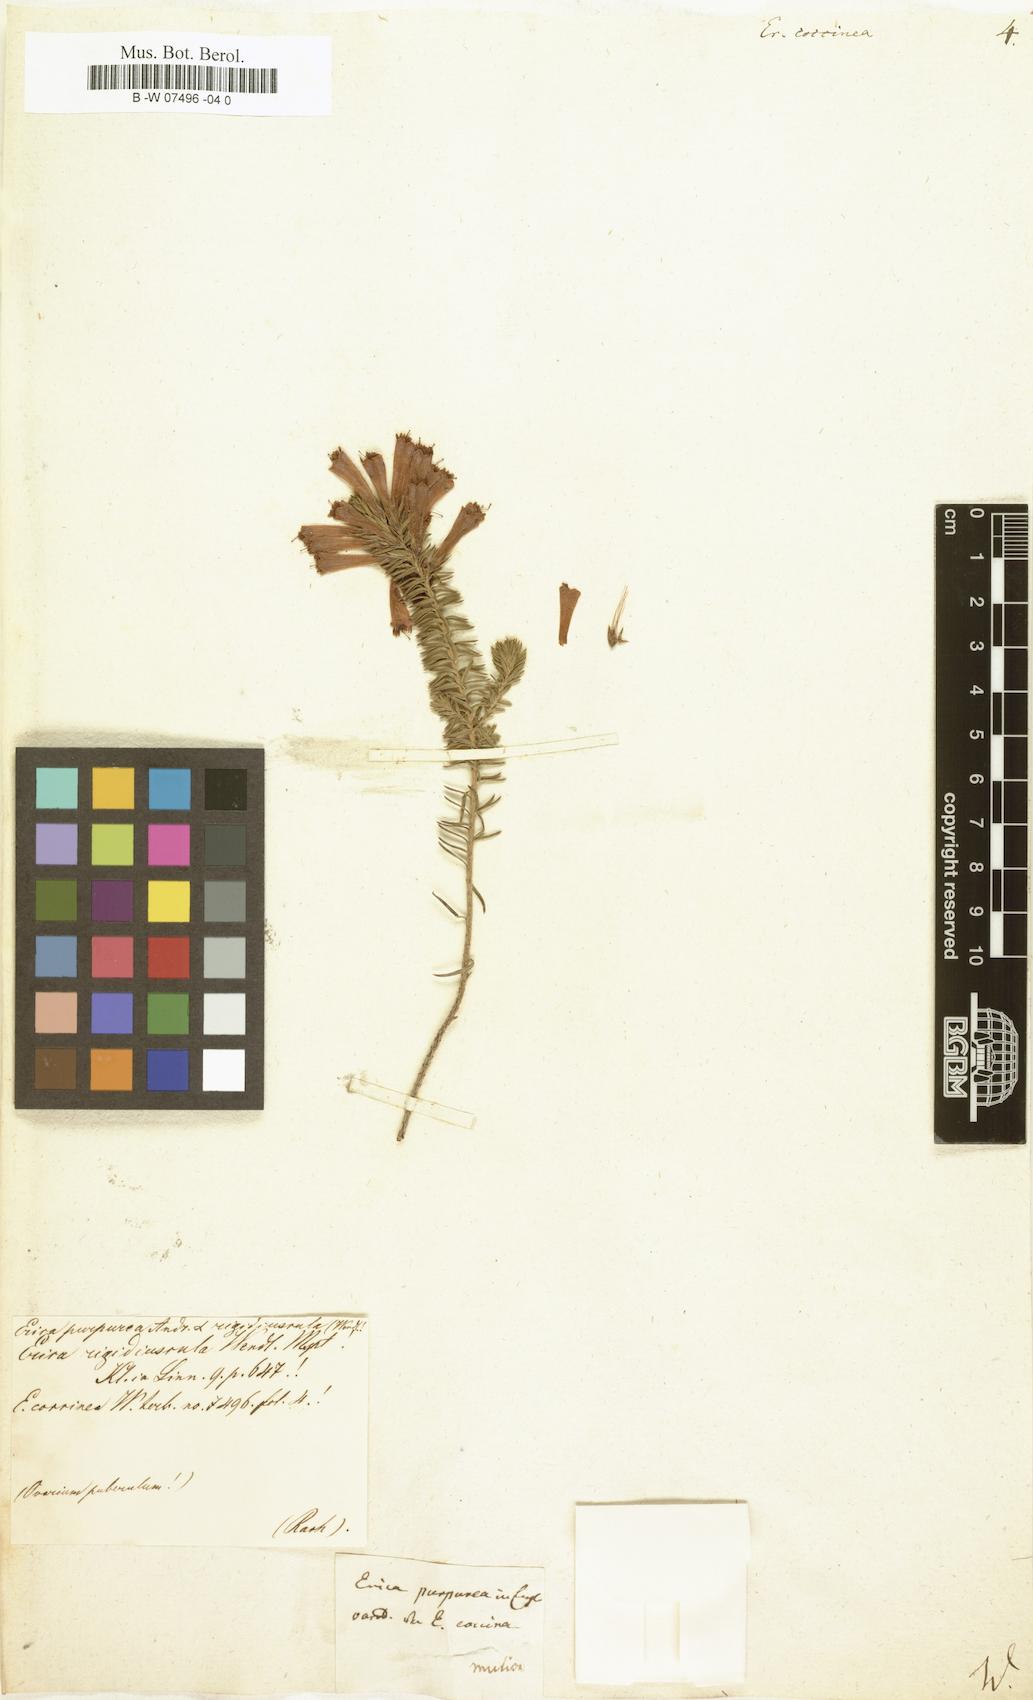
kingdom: Plantae
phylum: Tracheophyta
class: Magnoliopsida
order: Ericales
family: Ericaceae
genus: Erica
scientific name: Erica abietina
